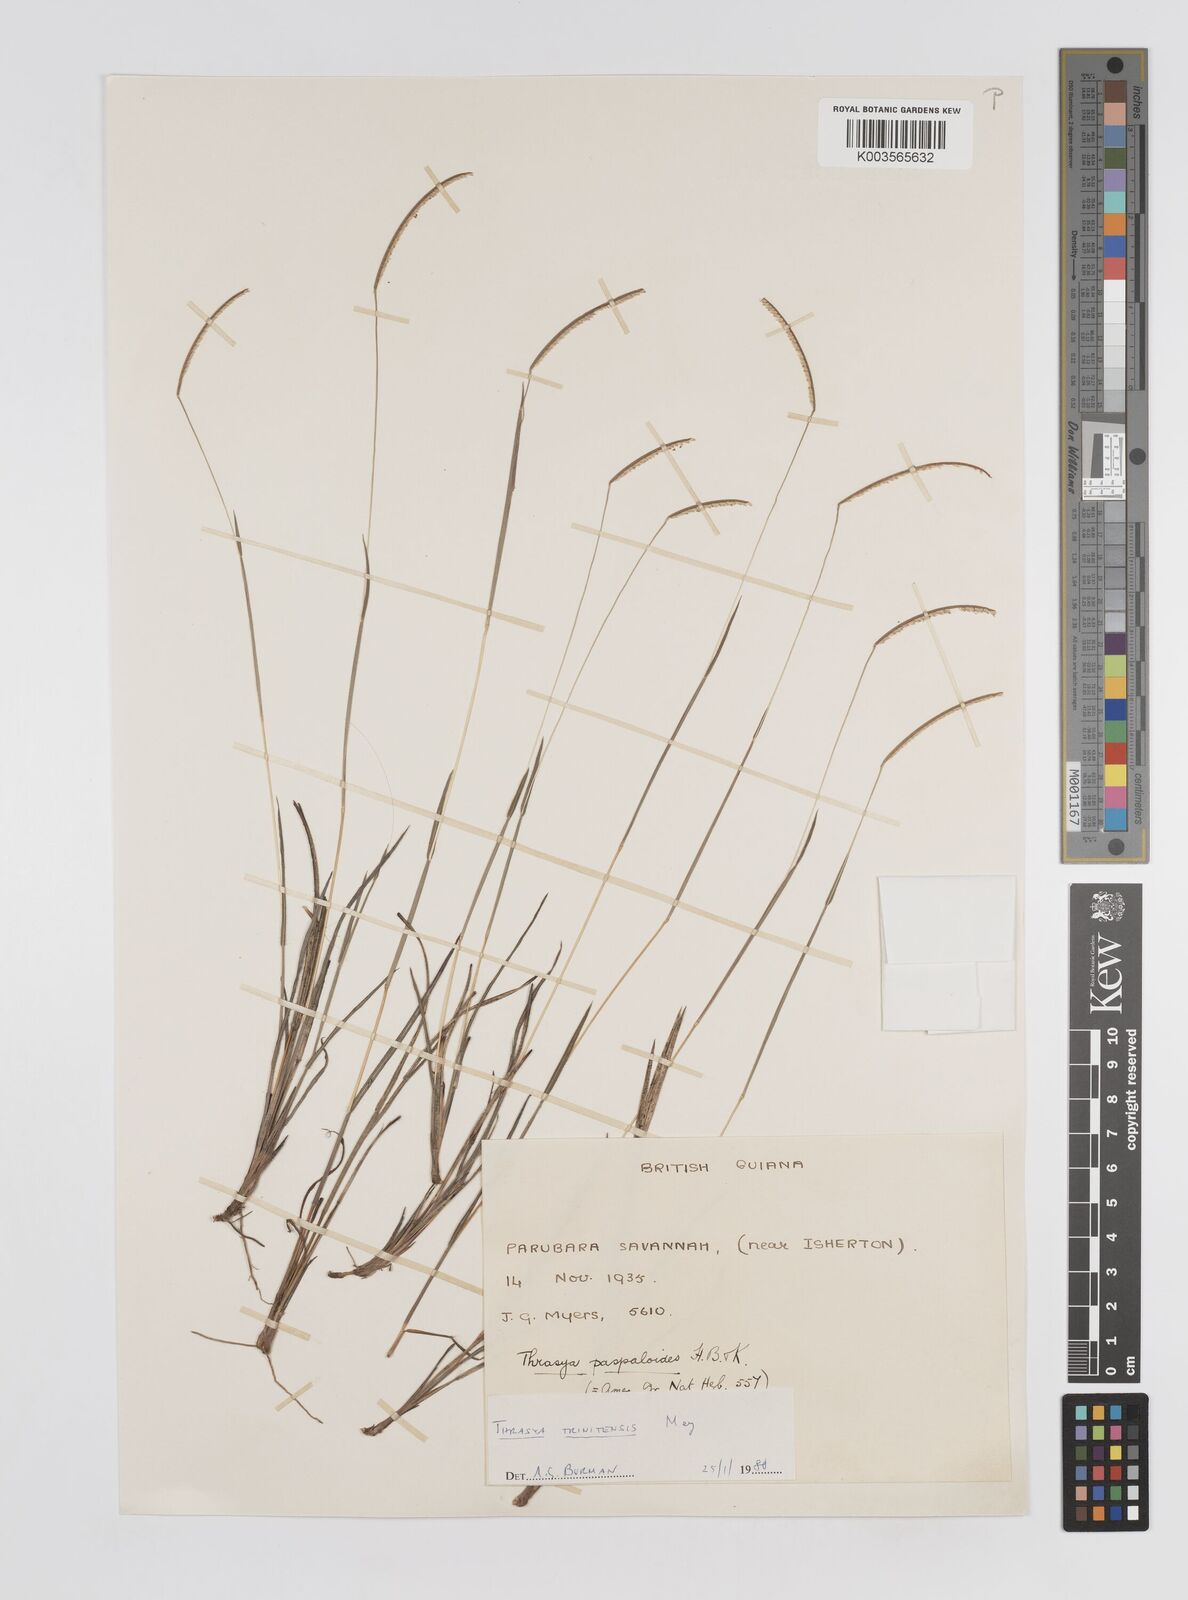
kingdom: Plantae
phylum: Tracheophyta
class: Liliopsida
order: Poales
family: Poaceae
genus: Paspalum
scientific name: Paspalum trinitense
